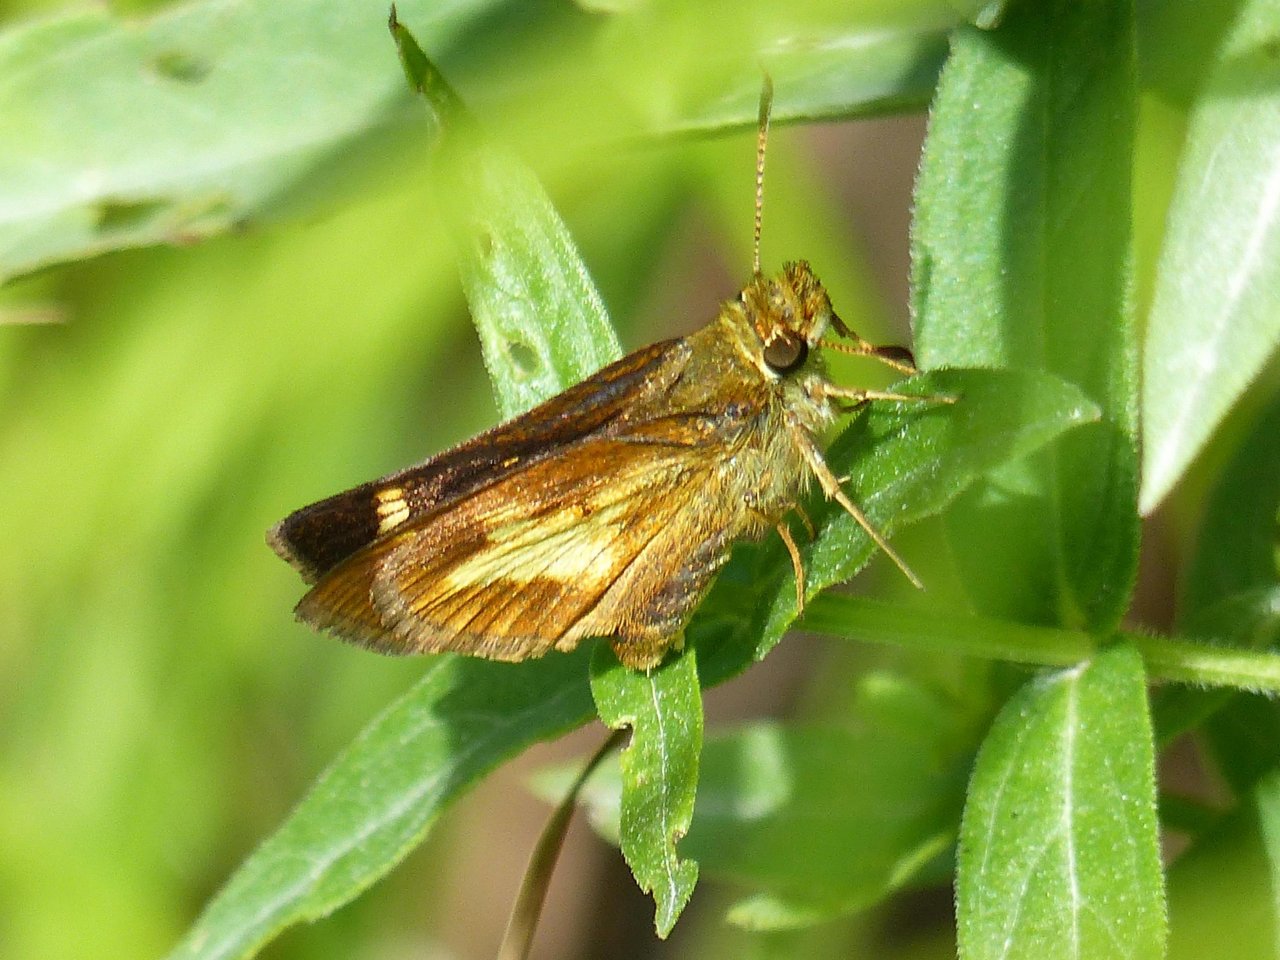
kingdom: Animalia
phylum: Arthropoda
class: Insecta
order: Lepidoptera
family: Hesperiidae
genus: Poanes
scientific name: Poanes massasoit
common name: Mulberry Wing
